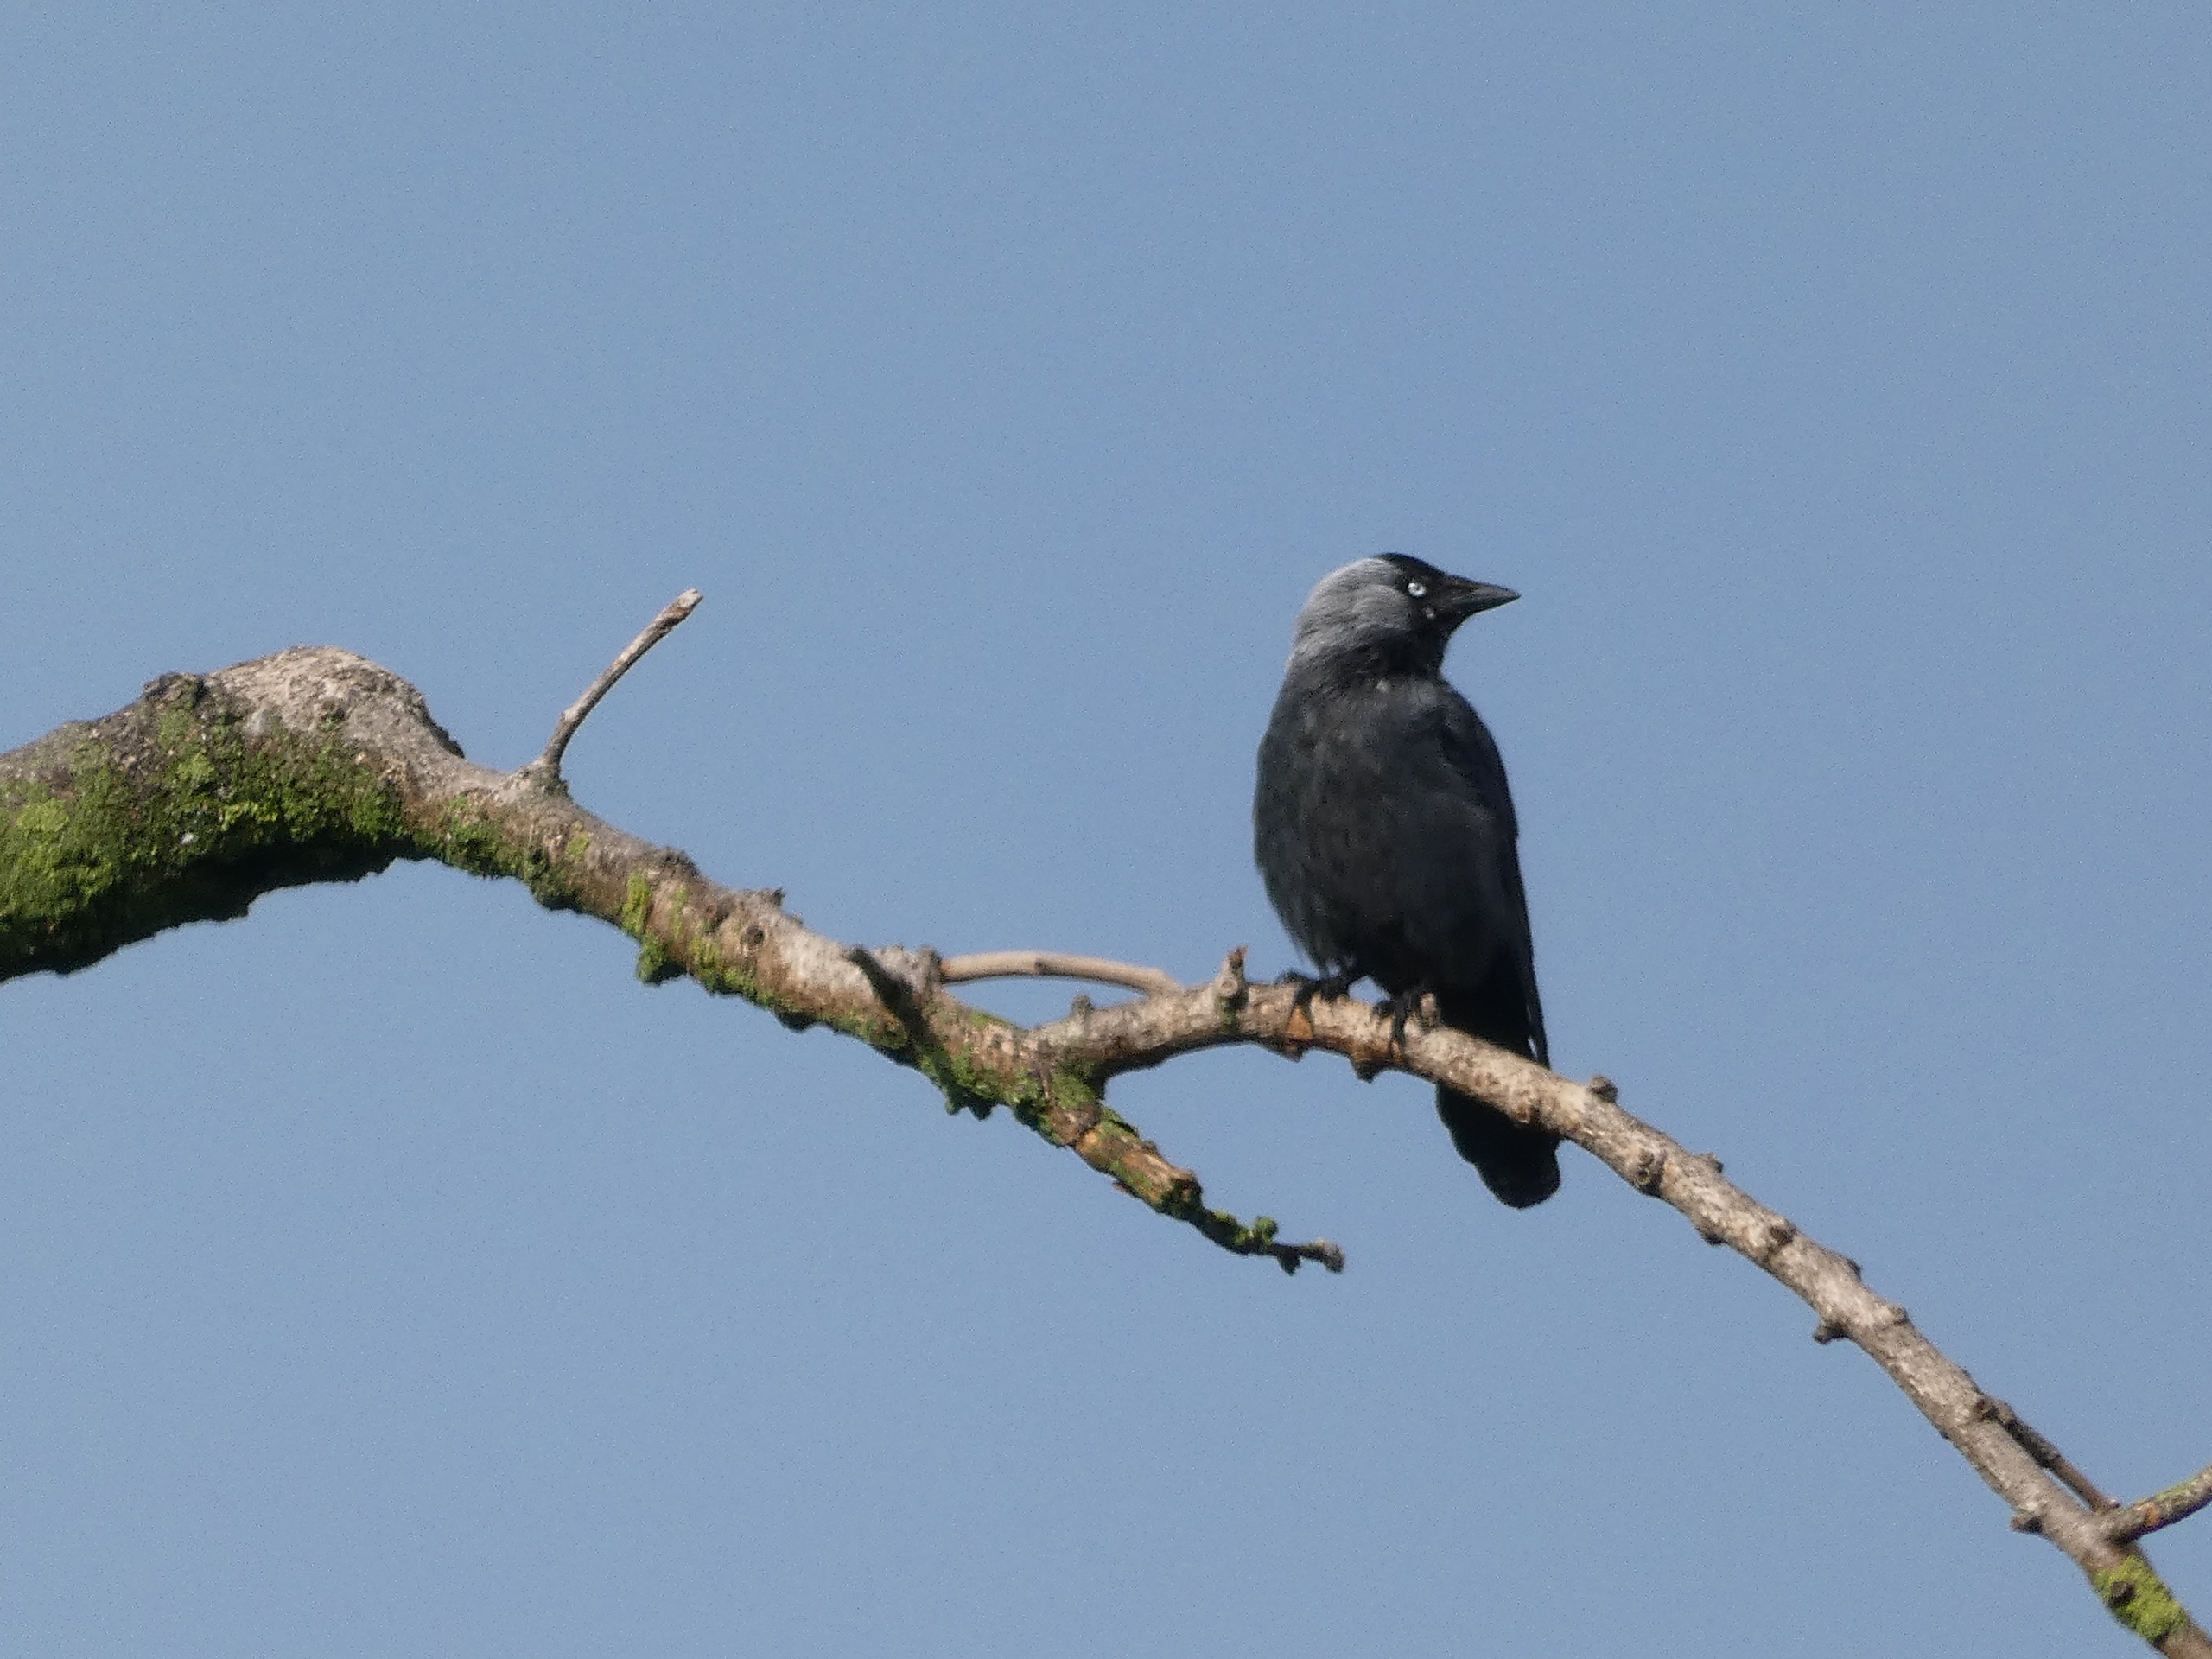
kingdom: Animalia
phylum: Chordata
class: Aves
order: Passeriformes
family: Corvidae
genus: Coloeus
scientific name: Coloeus monedula
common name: Allike
